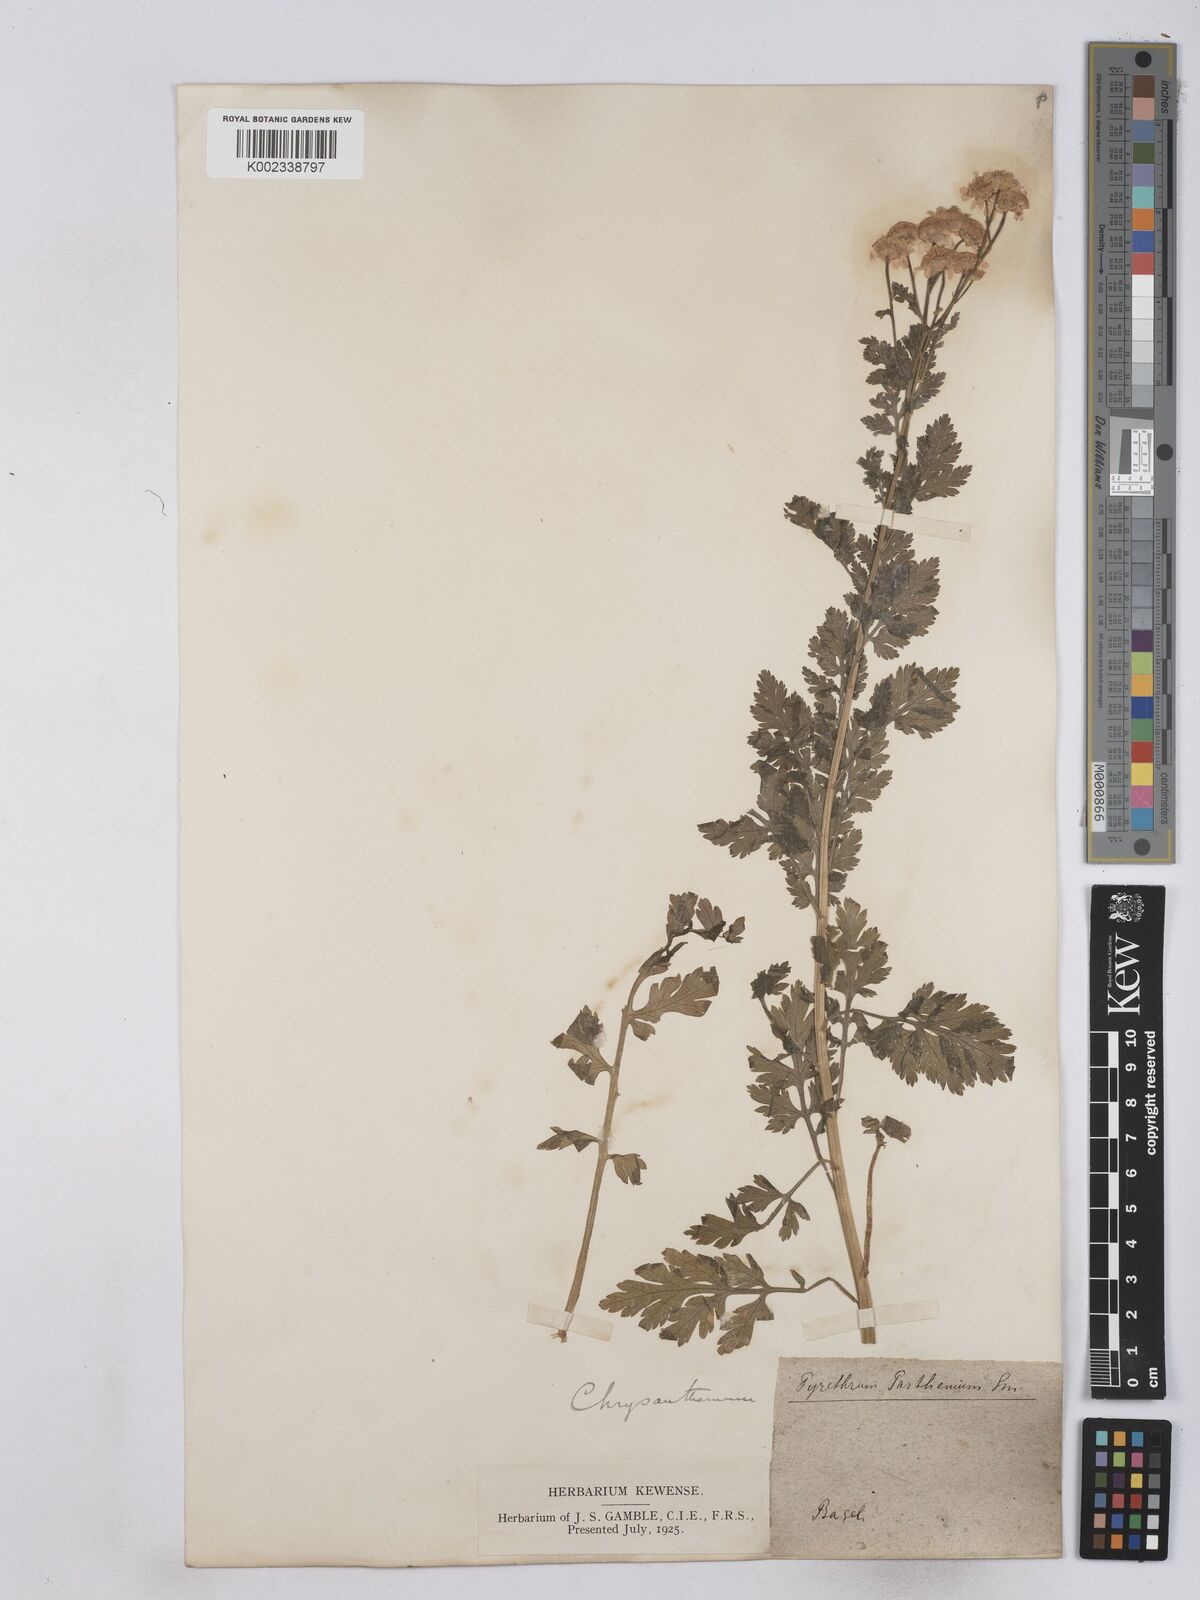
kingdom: Plantae
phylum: Tracheophyta
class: Magnoliopsida
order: Asterales
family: Asteraceae
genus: Tanacetum
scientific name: Tanacetum parthenium
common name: Feverfew
